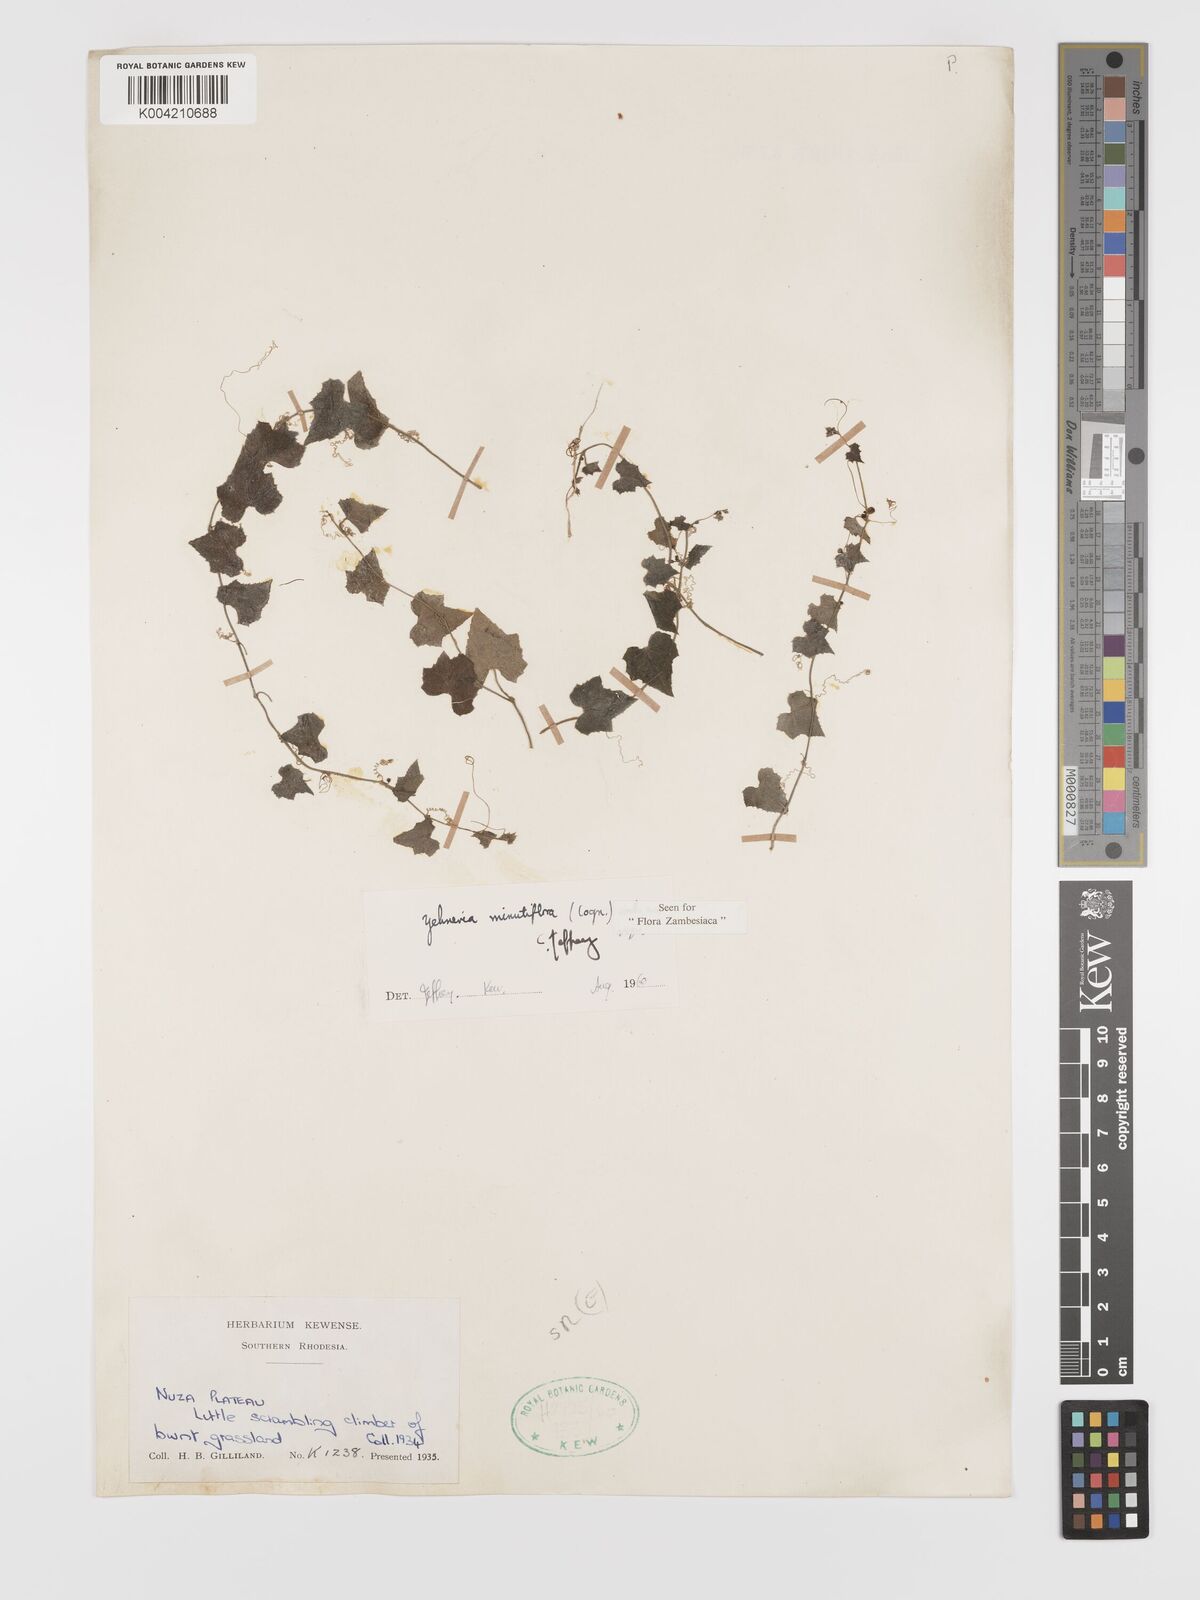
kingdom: Plantae
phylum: Tracheophyta
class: Magnoliopsida
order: Cucurbitales
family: Cucurbitaceae
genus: Zehneria
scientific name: Zehneria minutiflora
